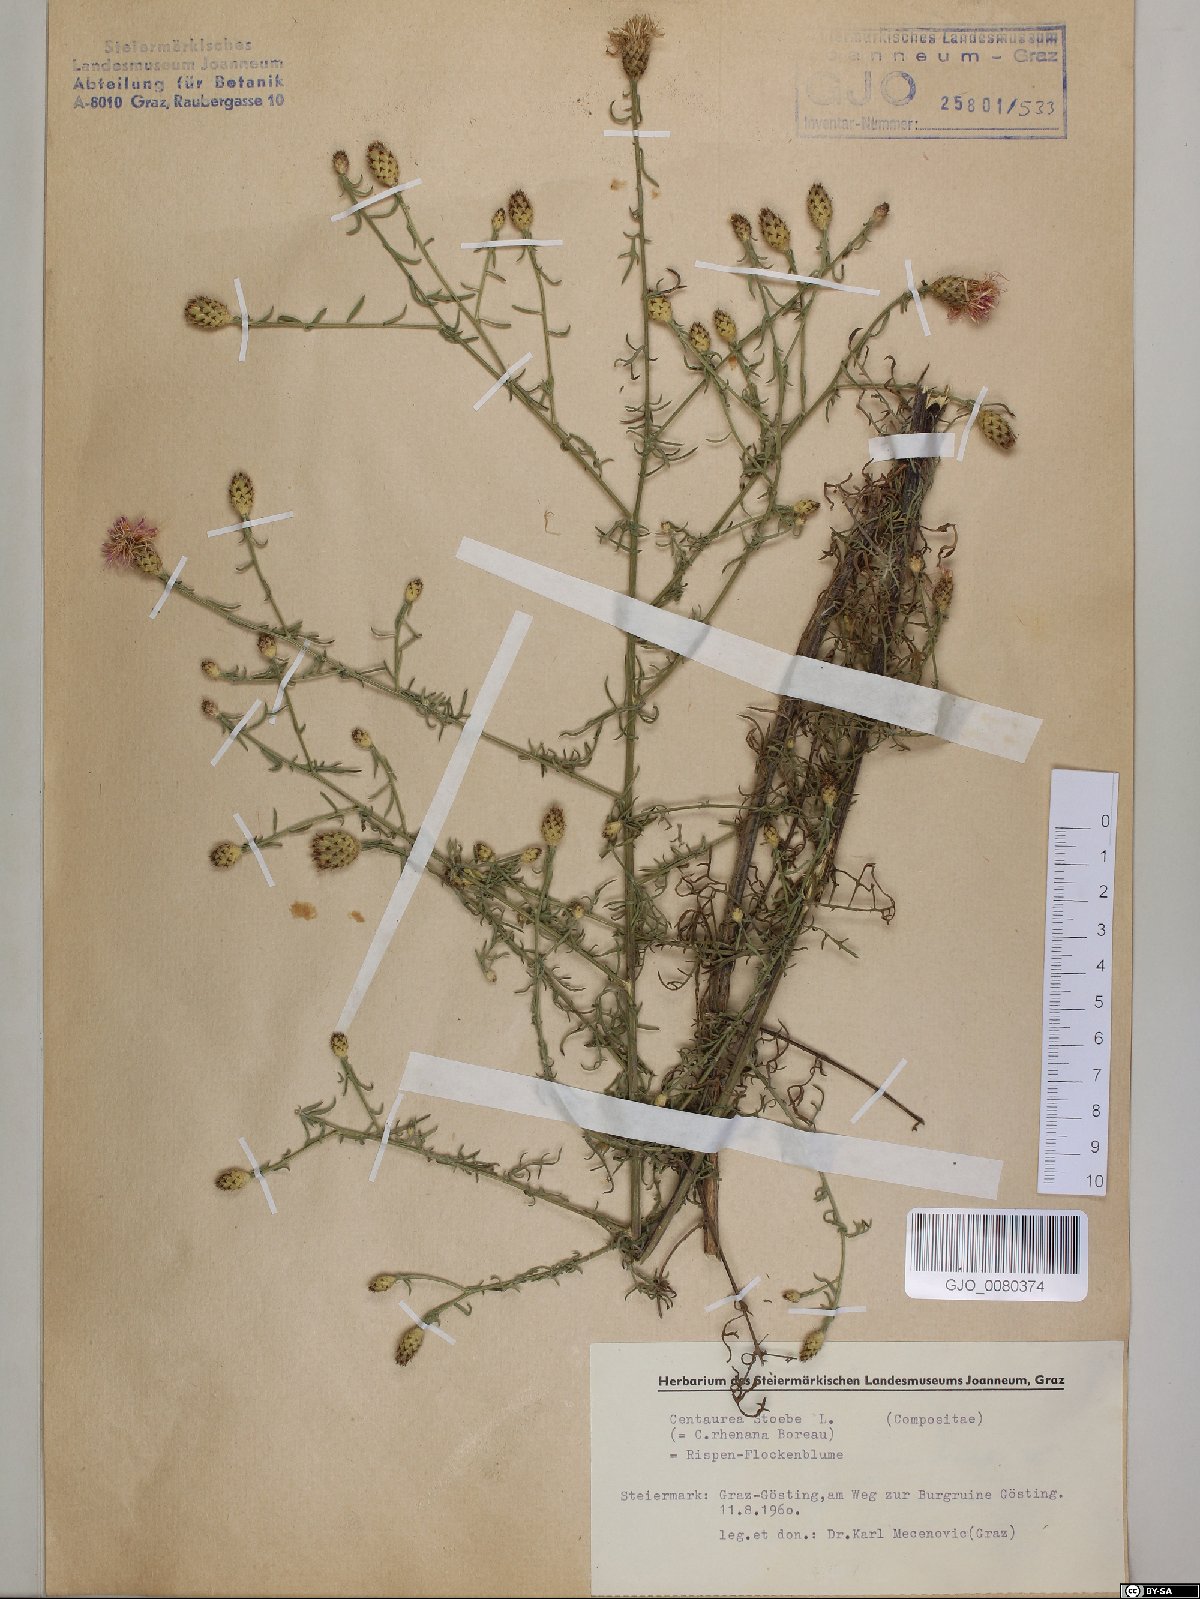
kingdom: Plantae
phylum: Tracheophyta
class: Magnoliopsida
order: Asterales
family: Asteraceae
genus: Centaurea
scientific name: Centaurea stoebe
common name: Spotted knapweed
